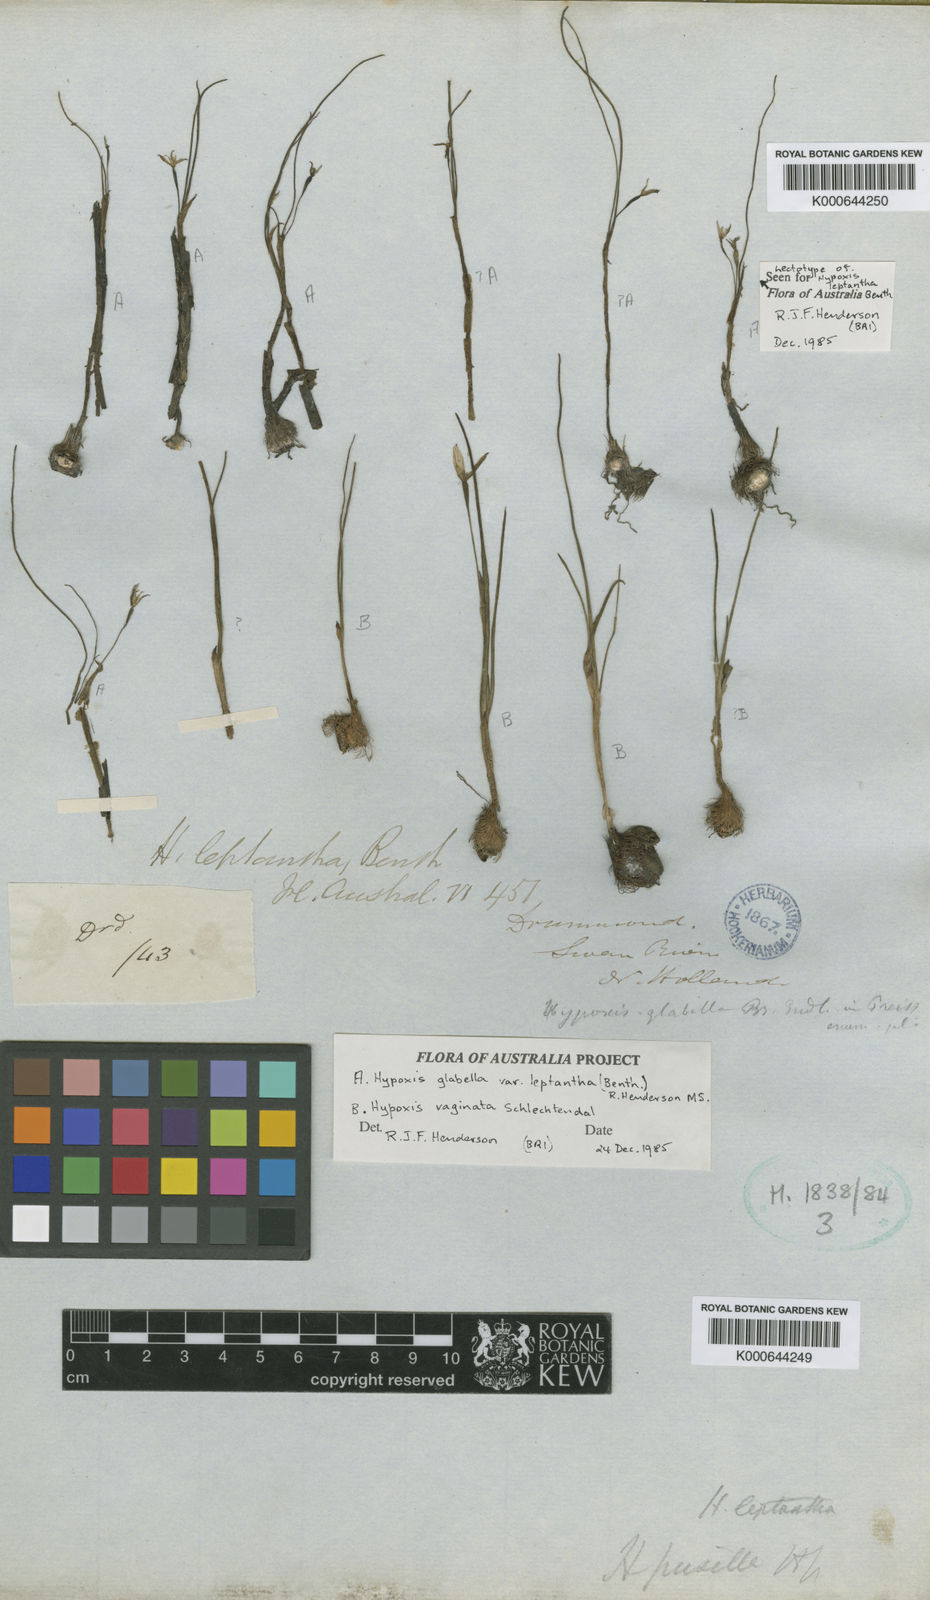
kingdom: Plantae
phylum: Tracheophyta
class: Liliopsida
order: Asparagales
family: Hypoxidaceae
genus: Pauridia
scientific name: Pauridia glabella
